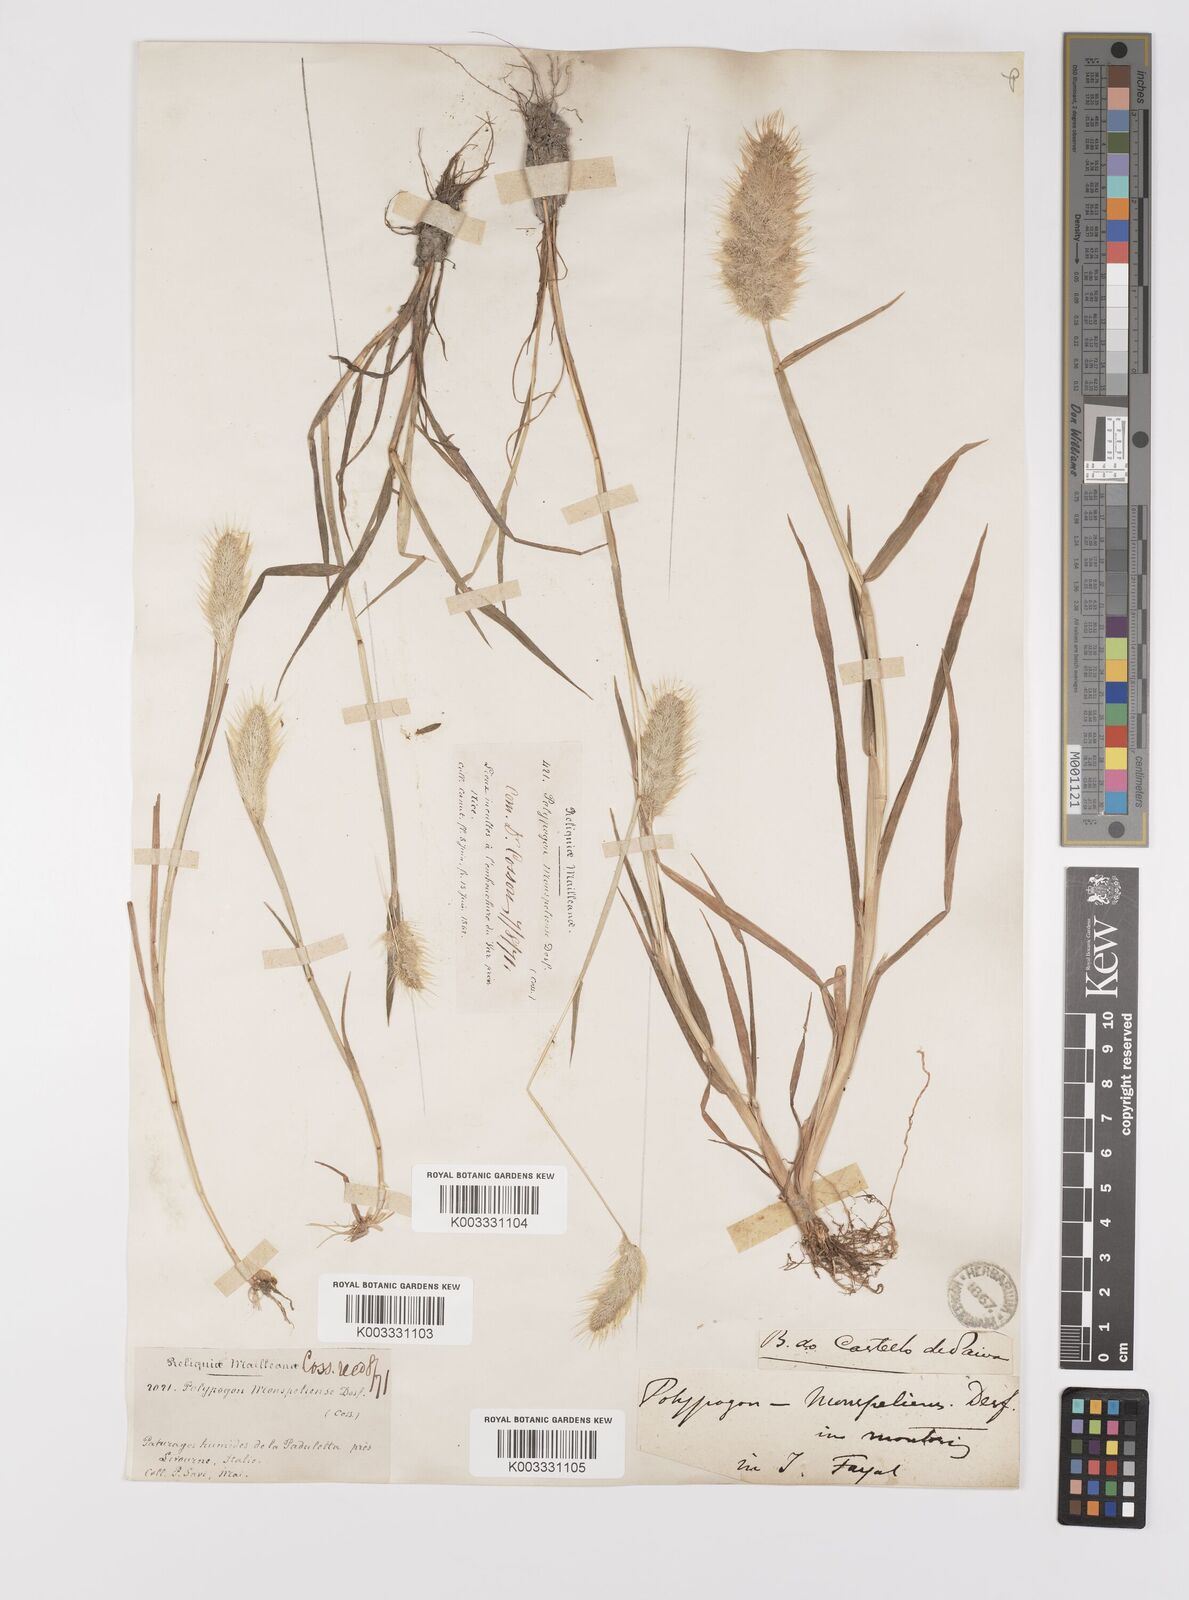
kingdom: Plantae
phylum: Tracheophyta
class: Liliopsida
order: Poales
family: Poaceae
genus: Polypogon
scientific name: Polypogon monspeliensis
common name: Annual rabbitsfoot grass
